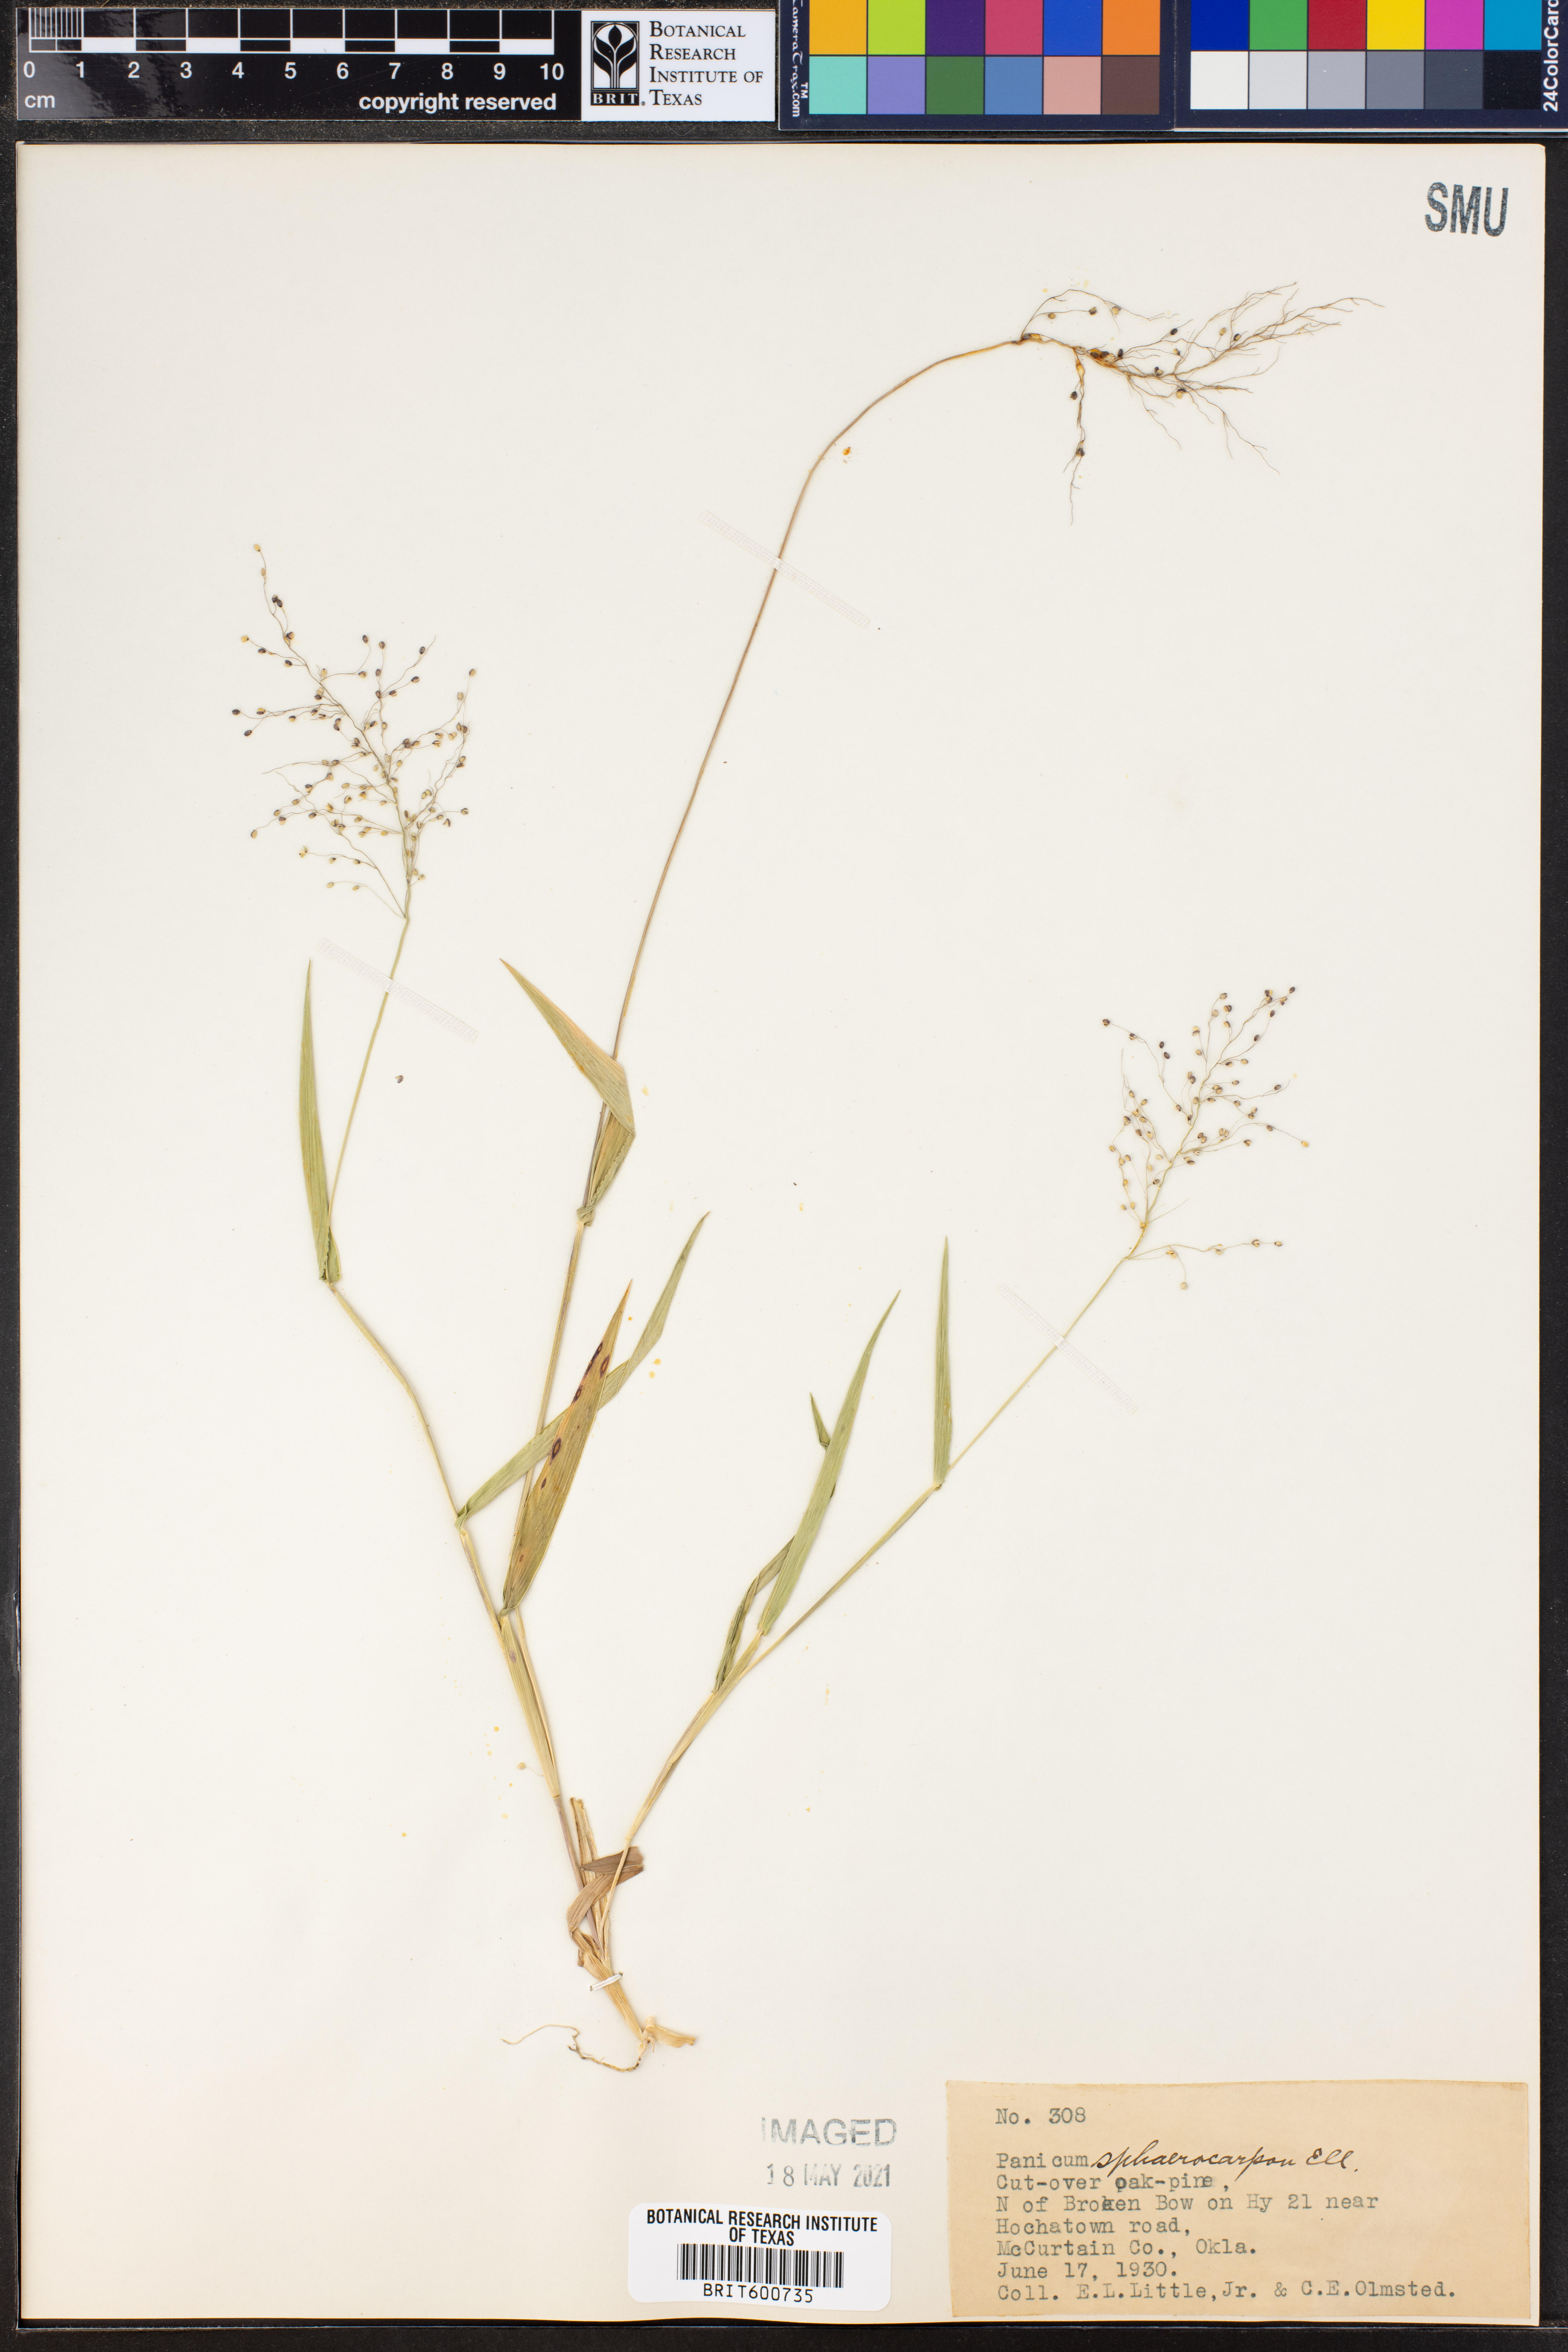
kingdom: Plantae
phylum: Tracheophyta
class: Liliopsida
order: Poales
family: Poaceae
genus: Dichanthelium
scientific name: Dichanthelium sphaerocarpon
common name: Round-fruited panicgrass
